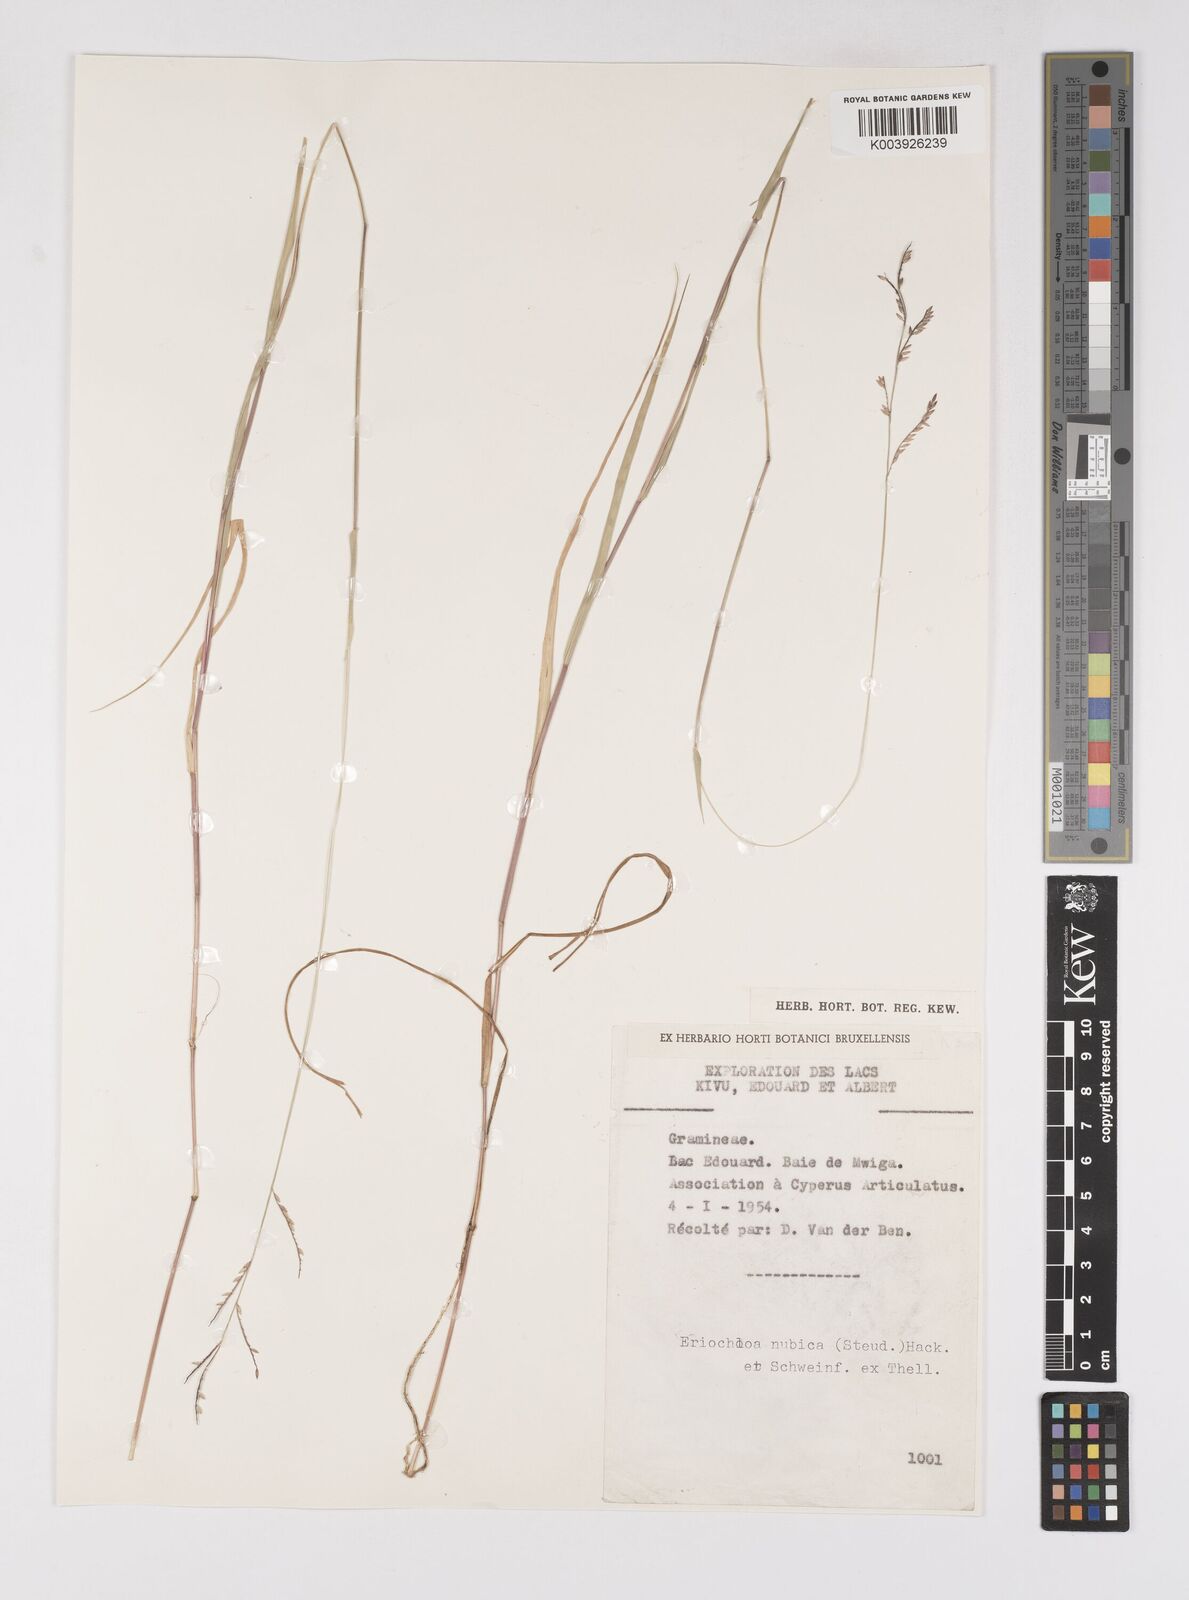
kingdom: Plantae
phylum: Tracheophyta
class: Liliopsida
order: Poales
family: Poaceae
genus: Eriochloa
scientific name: Eriochloa procera
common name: Spring grass
